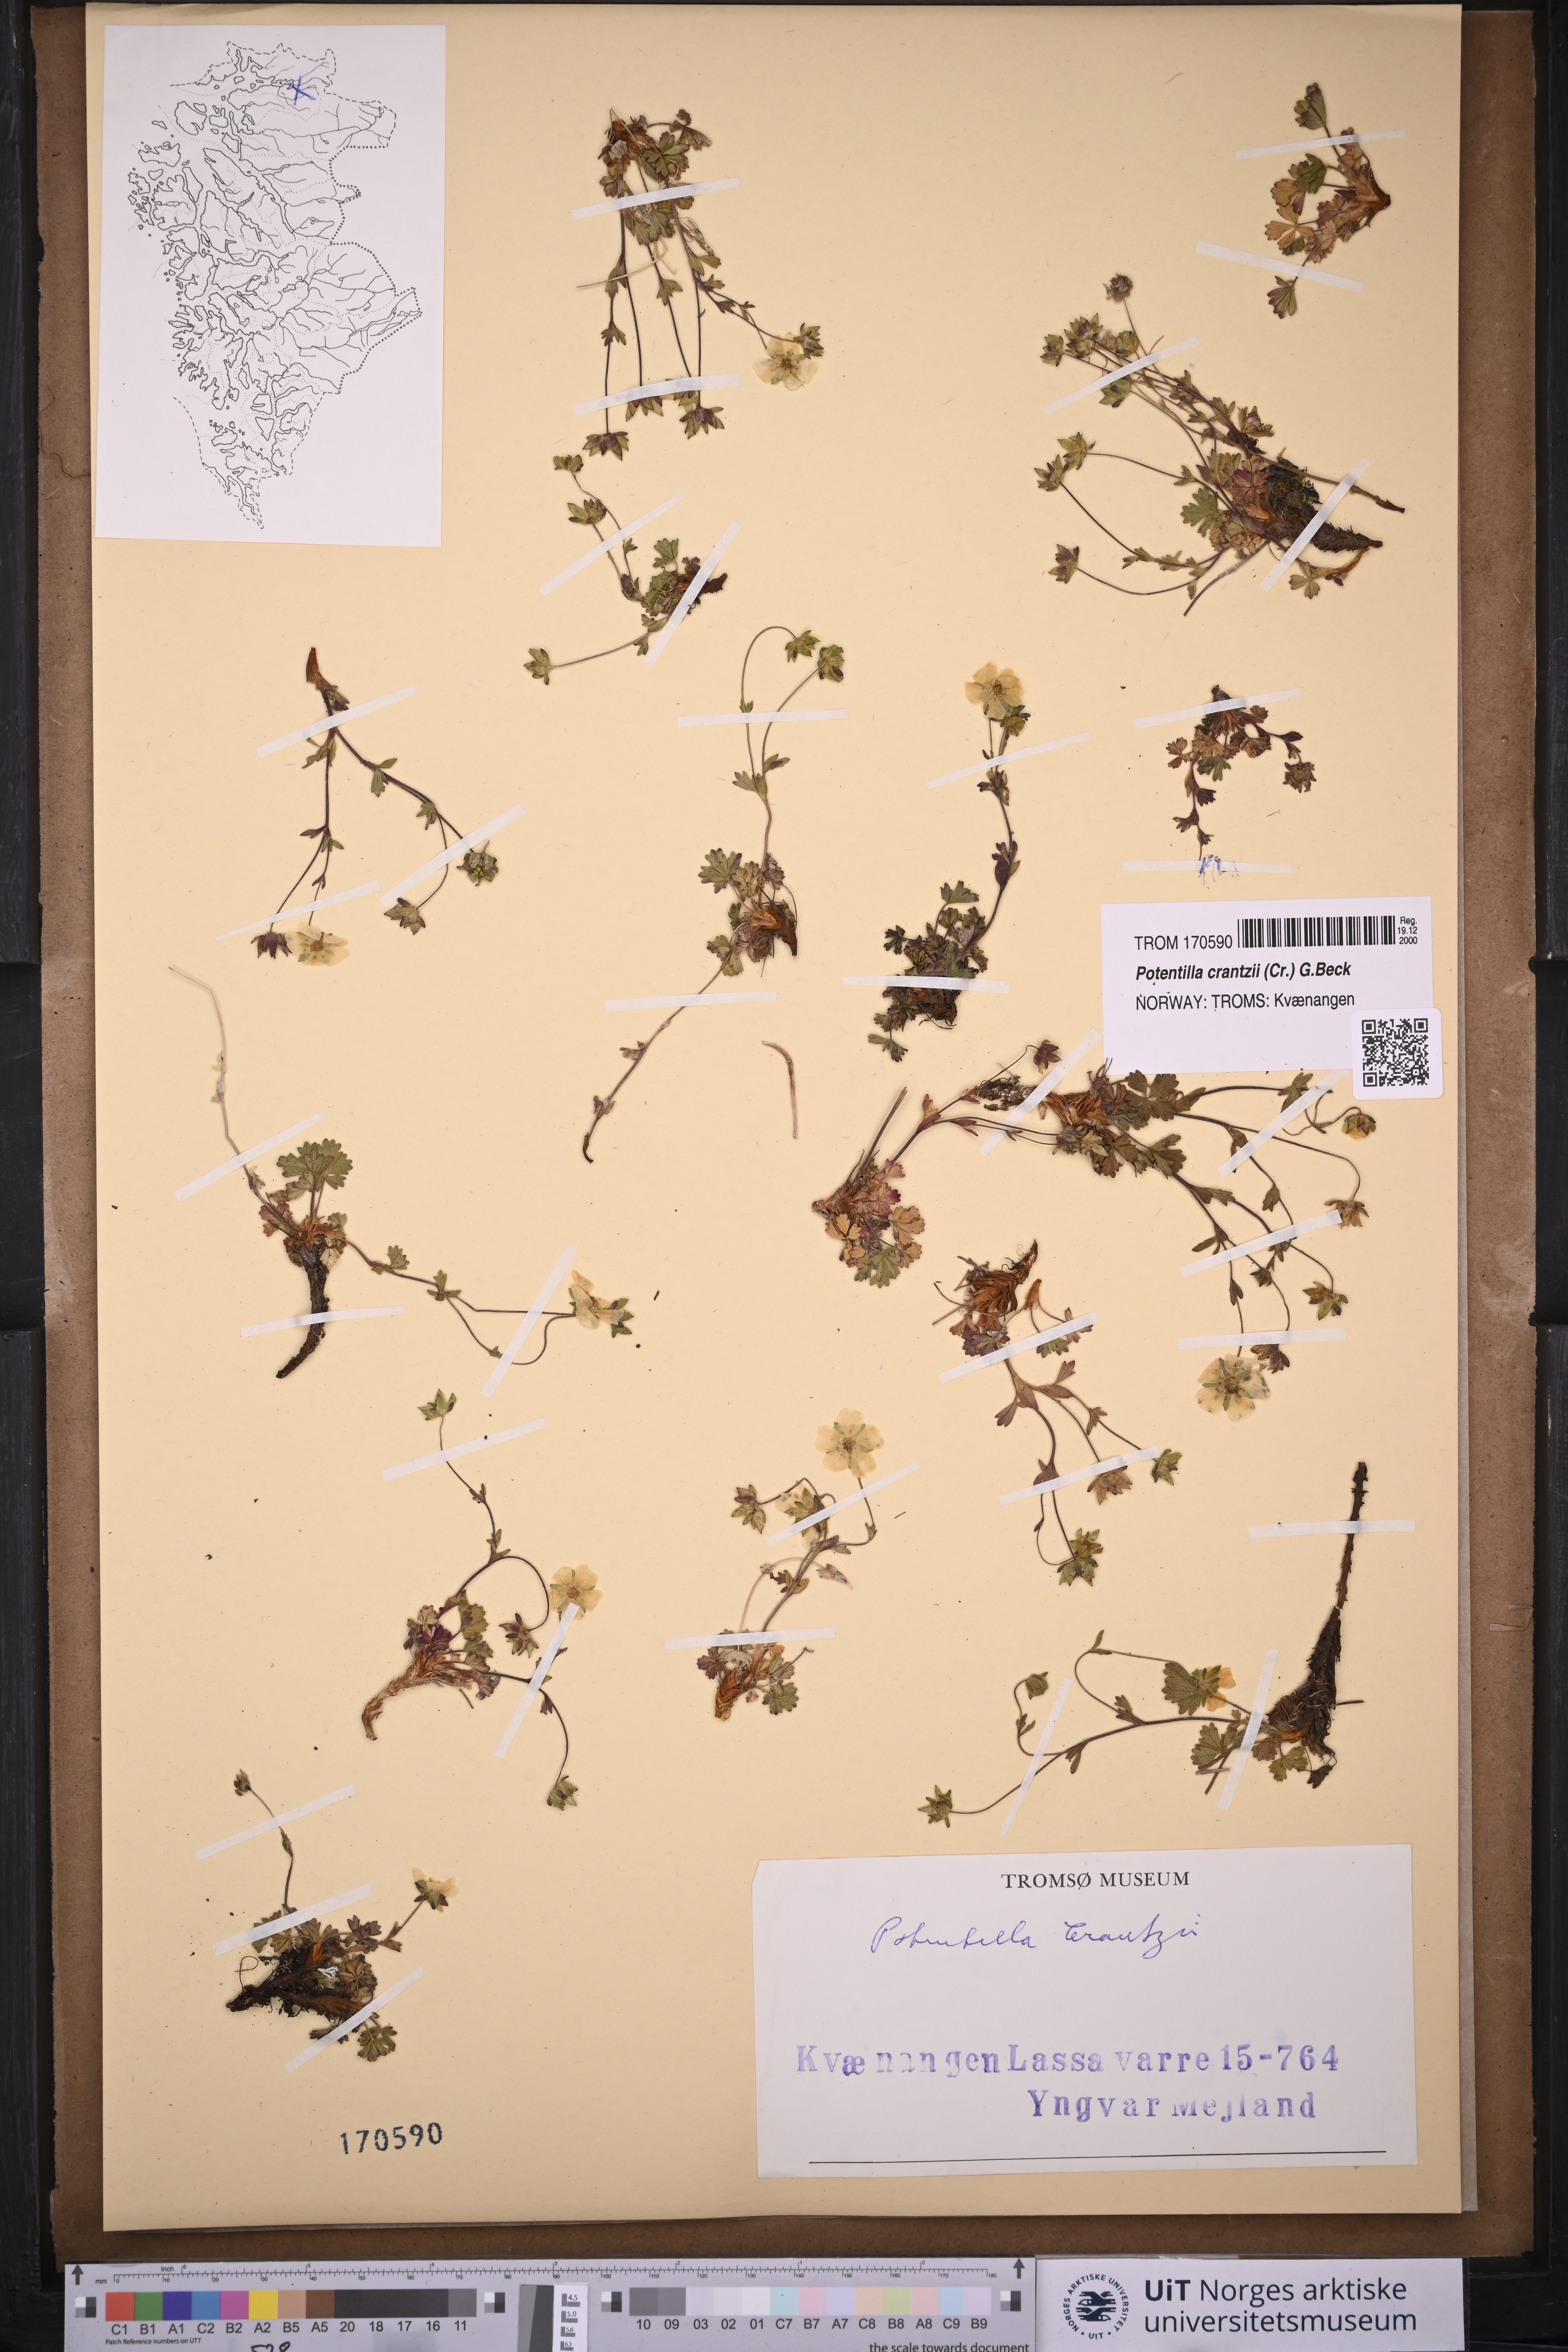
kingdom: Plantae
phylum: Tracheophyta
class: Magnoliopsida
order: Rosales
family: Rosaceae
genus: Potentilla
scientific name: Potentilla crantzii
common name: Alpine cinquefoil
